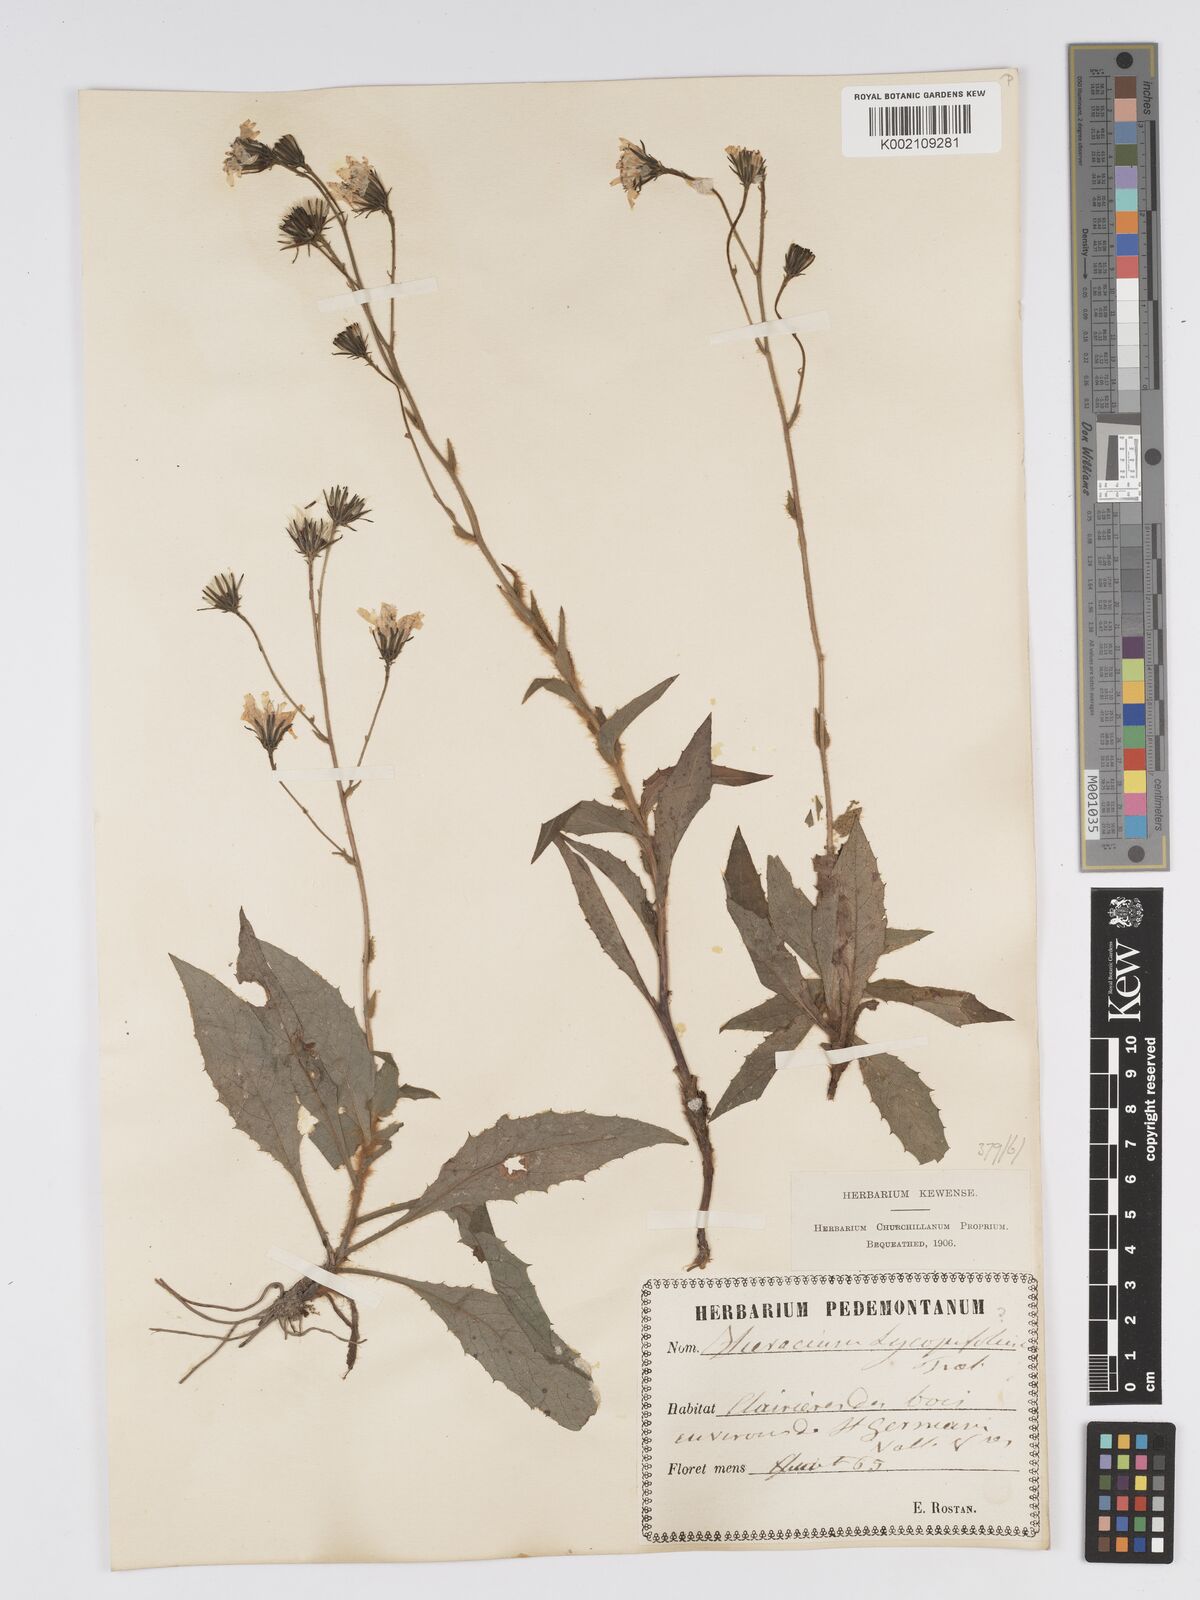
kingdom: Plantae
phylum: Tracheophyta
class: Magnoliopsida
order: Asterales
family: Asteraceae
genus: Hieracium
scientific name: Hieracium lycopifolium
